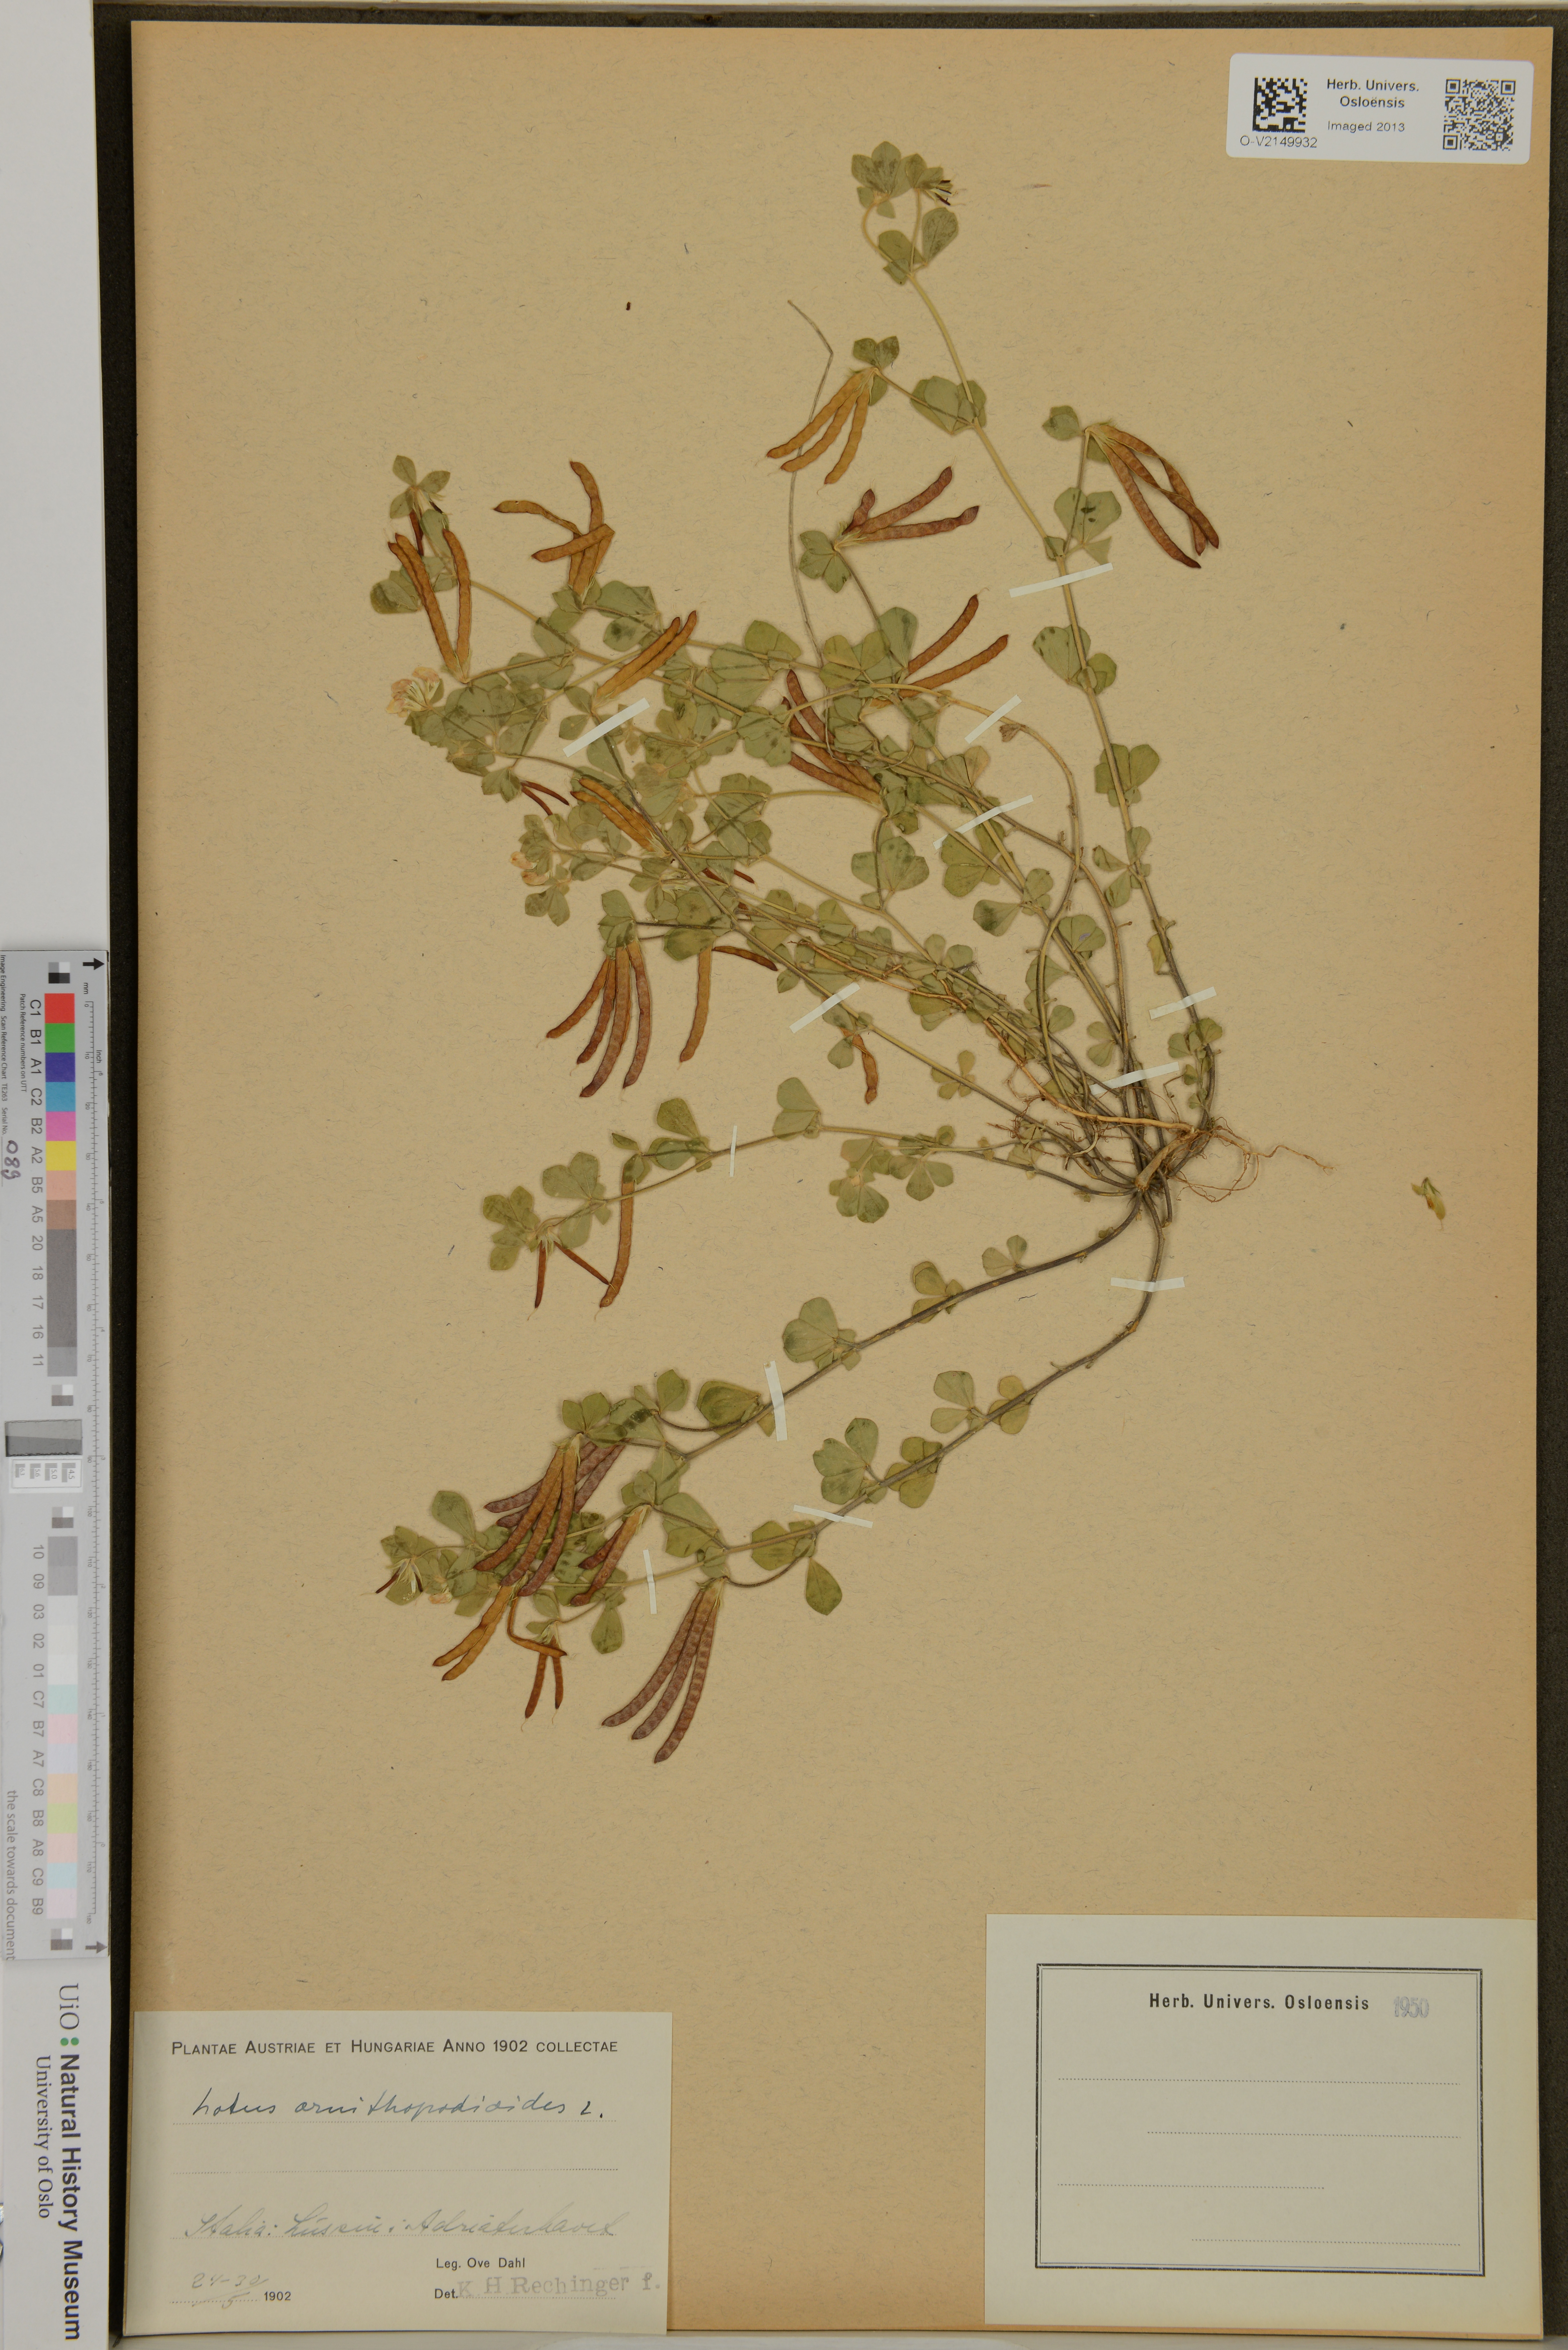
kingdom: Plantae
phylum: Tracheophyta
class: Magnoliopsida
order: Fabales
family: Fabaceae
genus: Lotus
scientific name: Lotus ornithopodioides
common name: Southern bird's-foot trefoil
